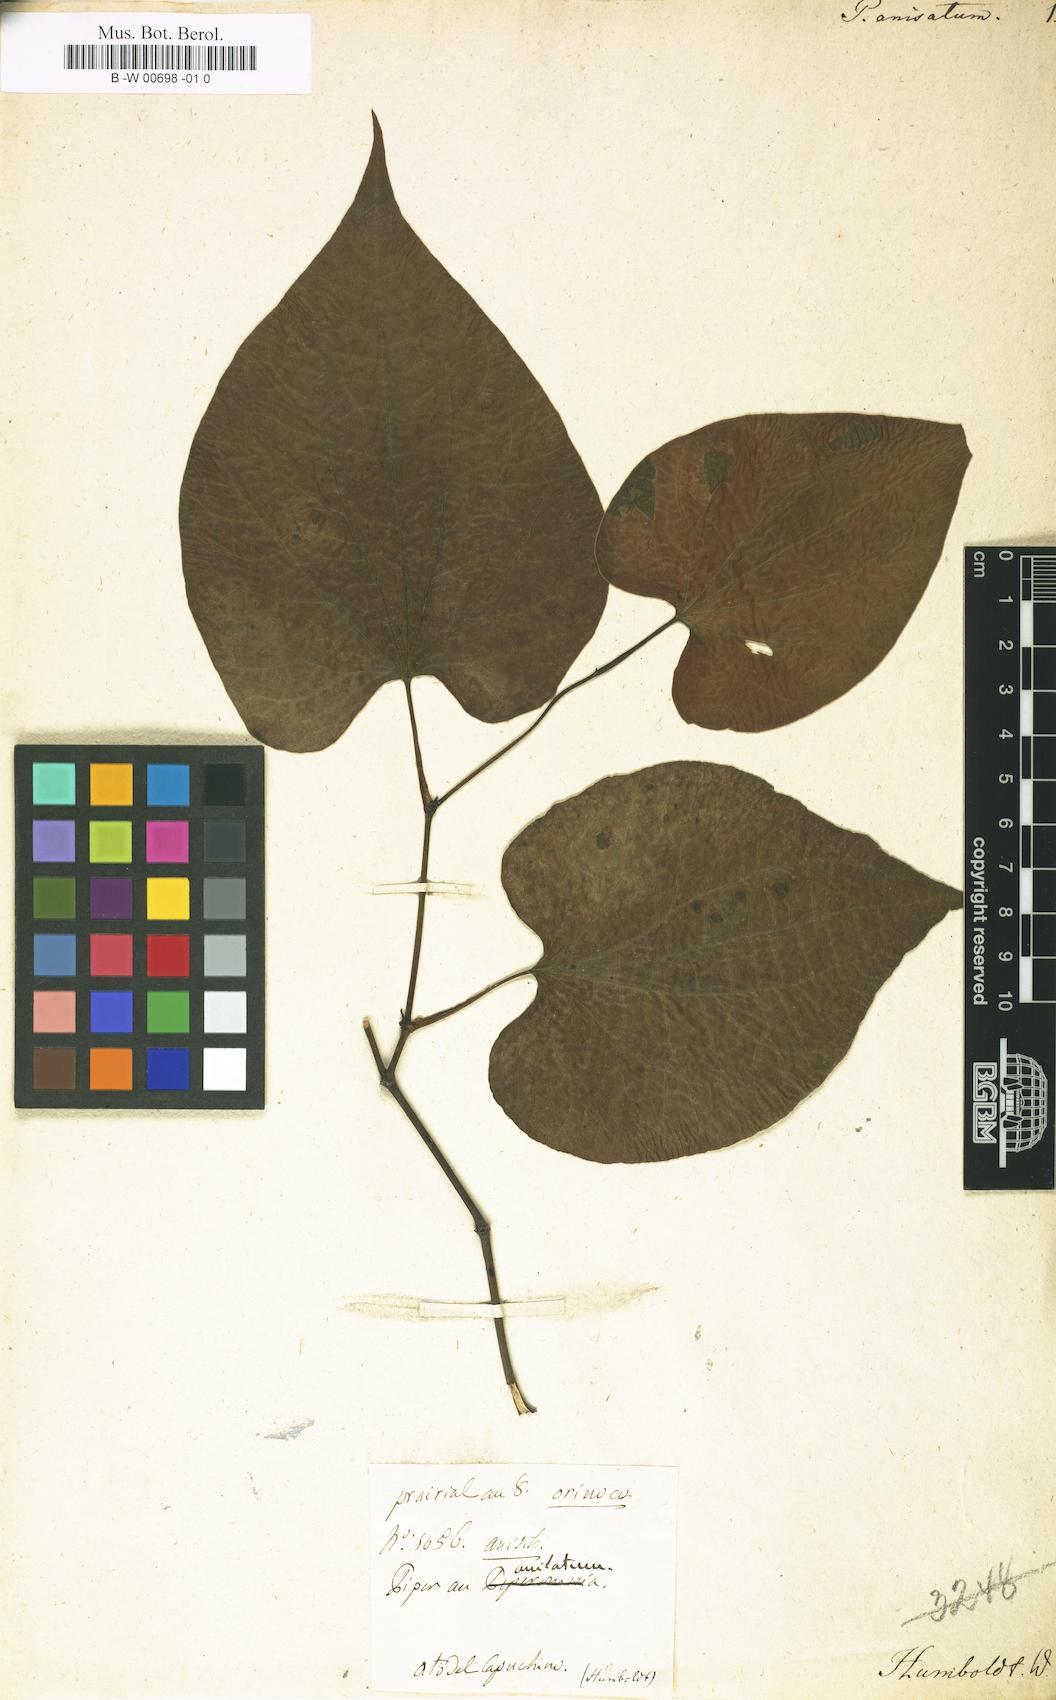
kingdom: Plantae
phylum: Tracheophyta
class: Magnoliopsida
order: Piperales
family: Piperaceae
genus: Piper
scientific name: Piper marginatum
